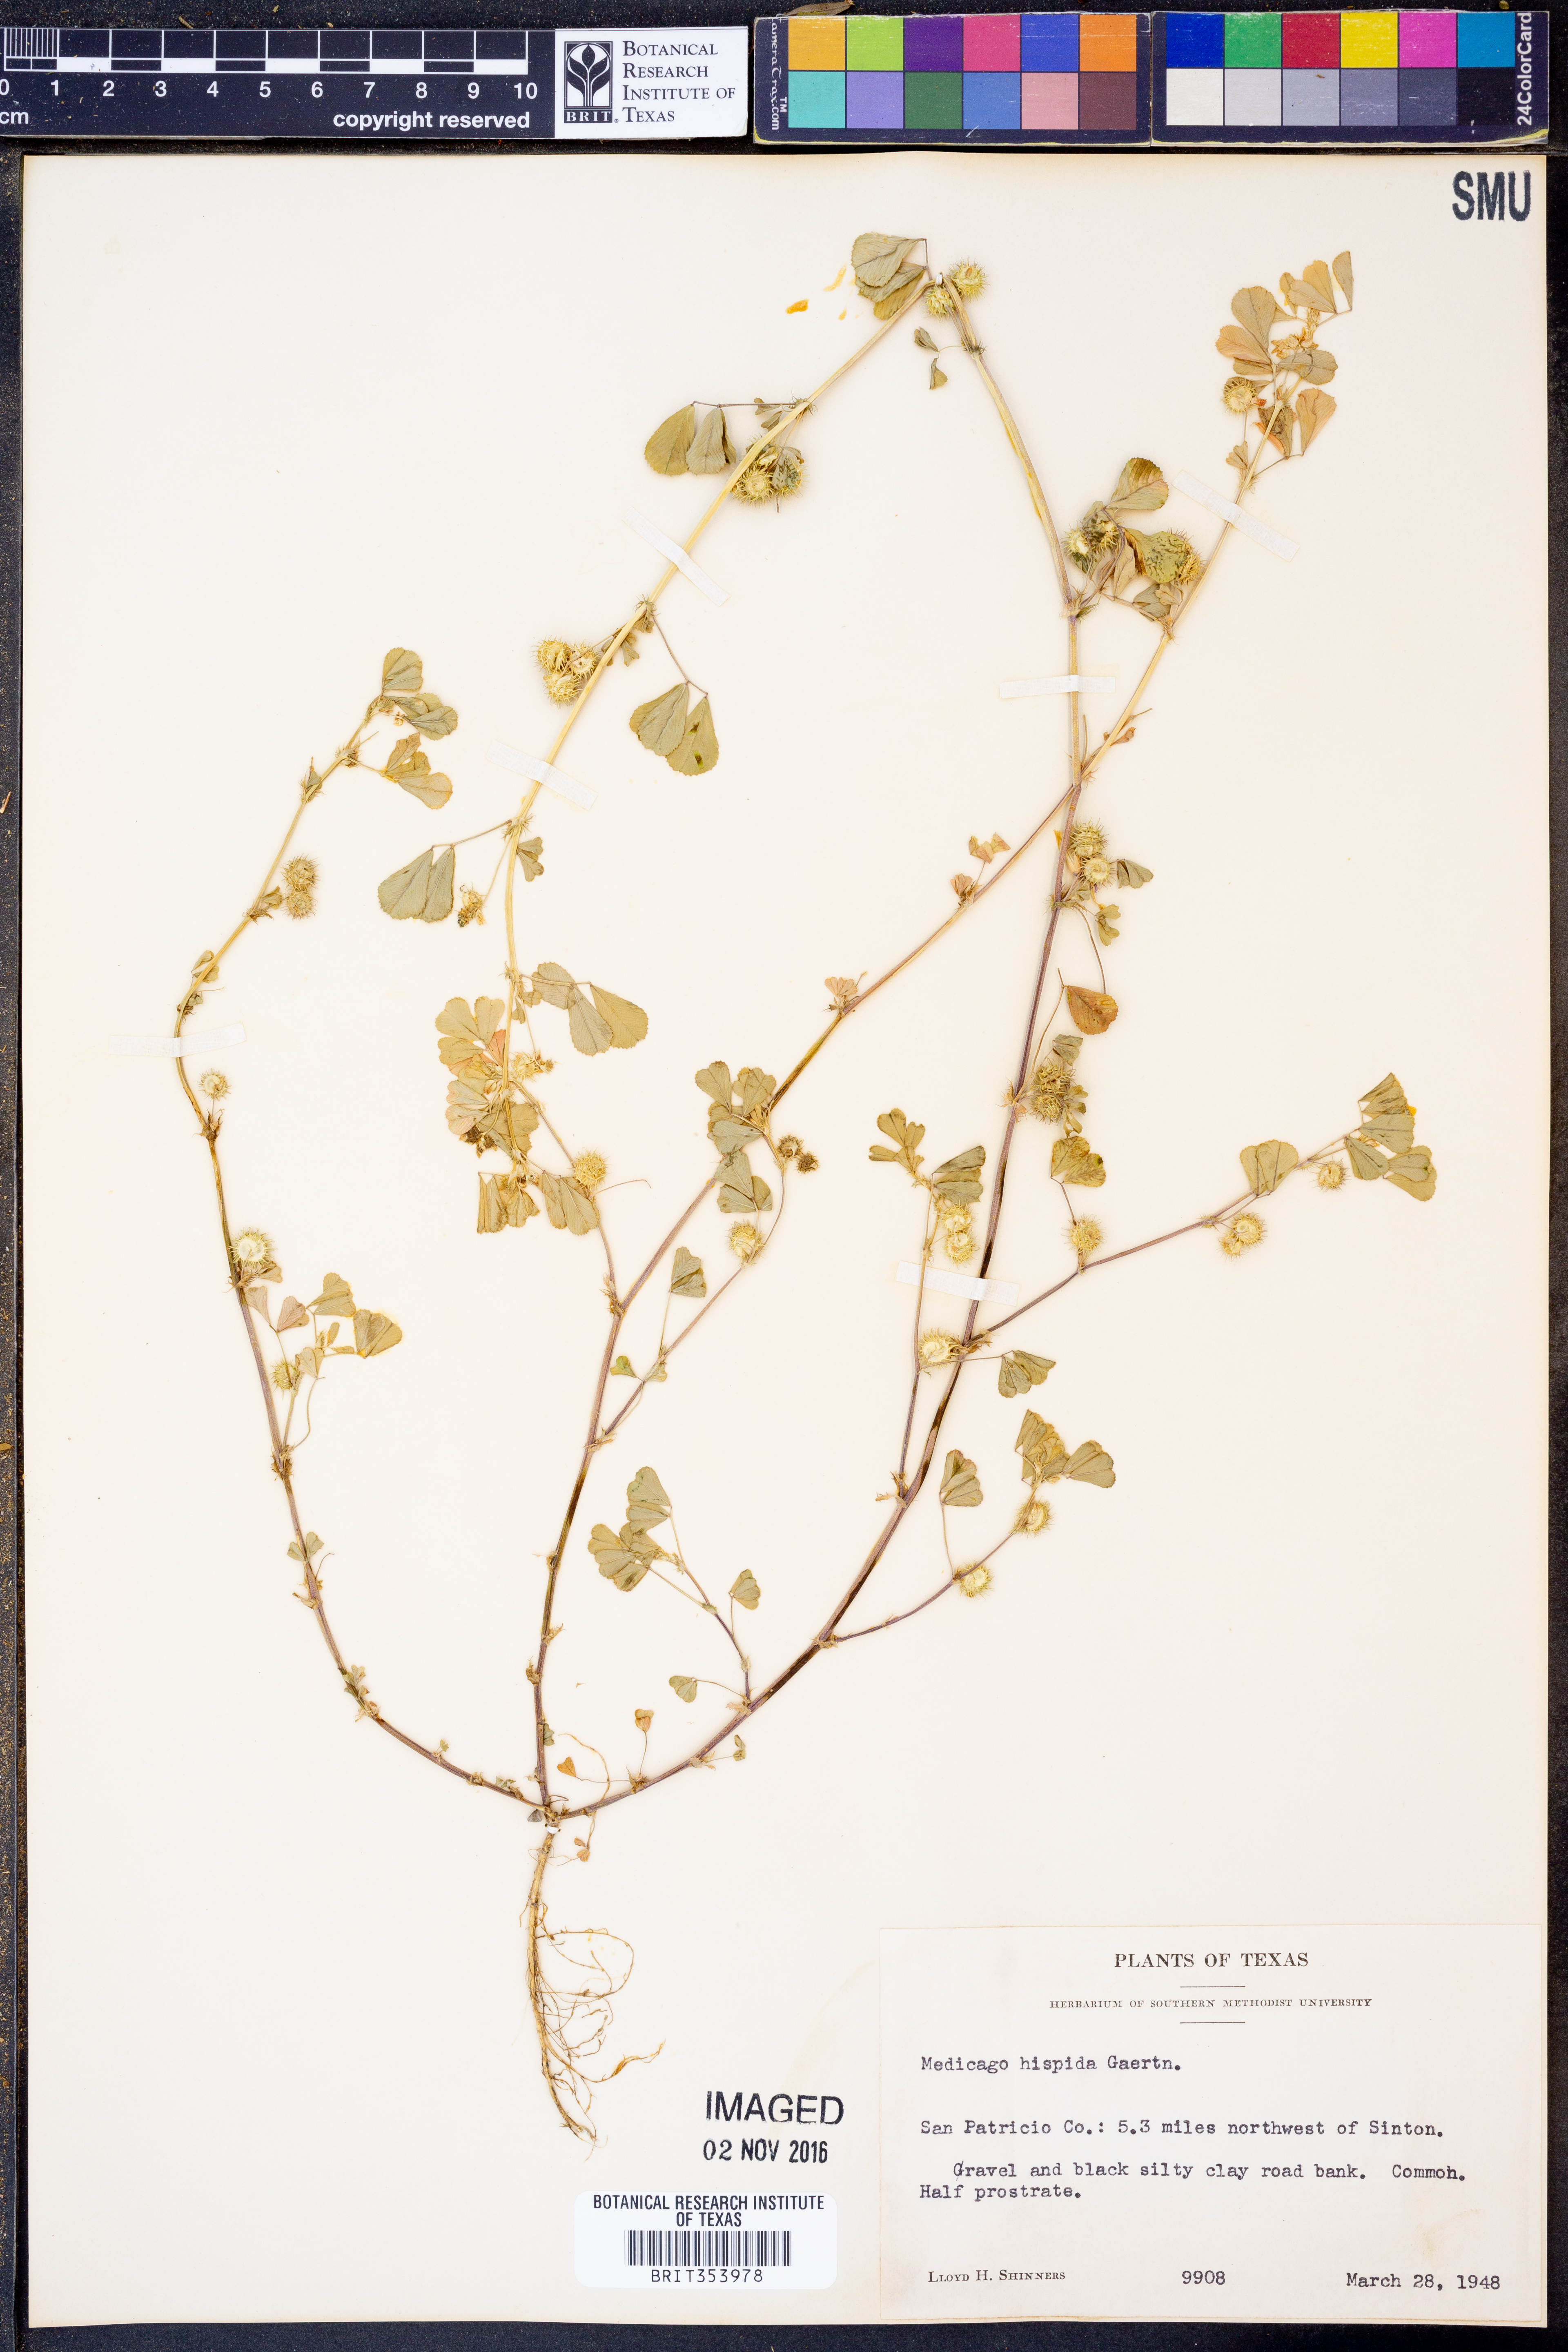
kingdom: Plantae
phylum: Tracheophyta
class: Magnoliopsida
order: Fabales
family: Fabaceae
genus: Medicago
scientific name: Medicago polymorpha
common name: Burclover
